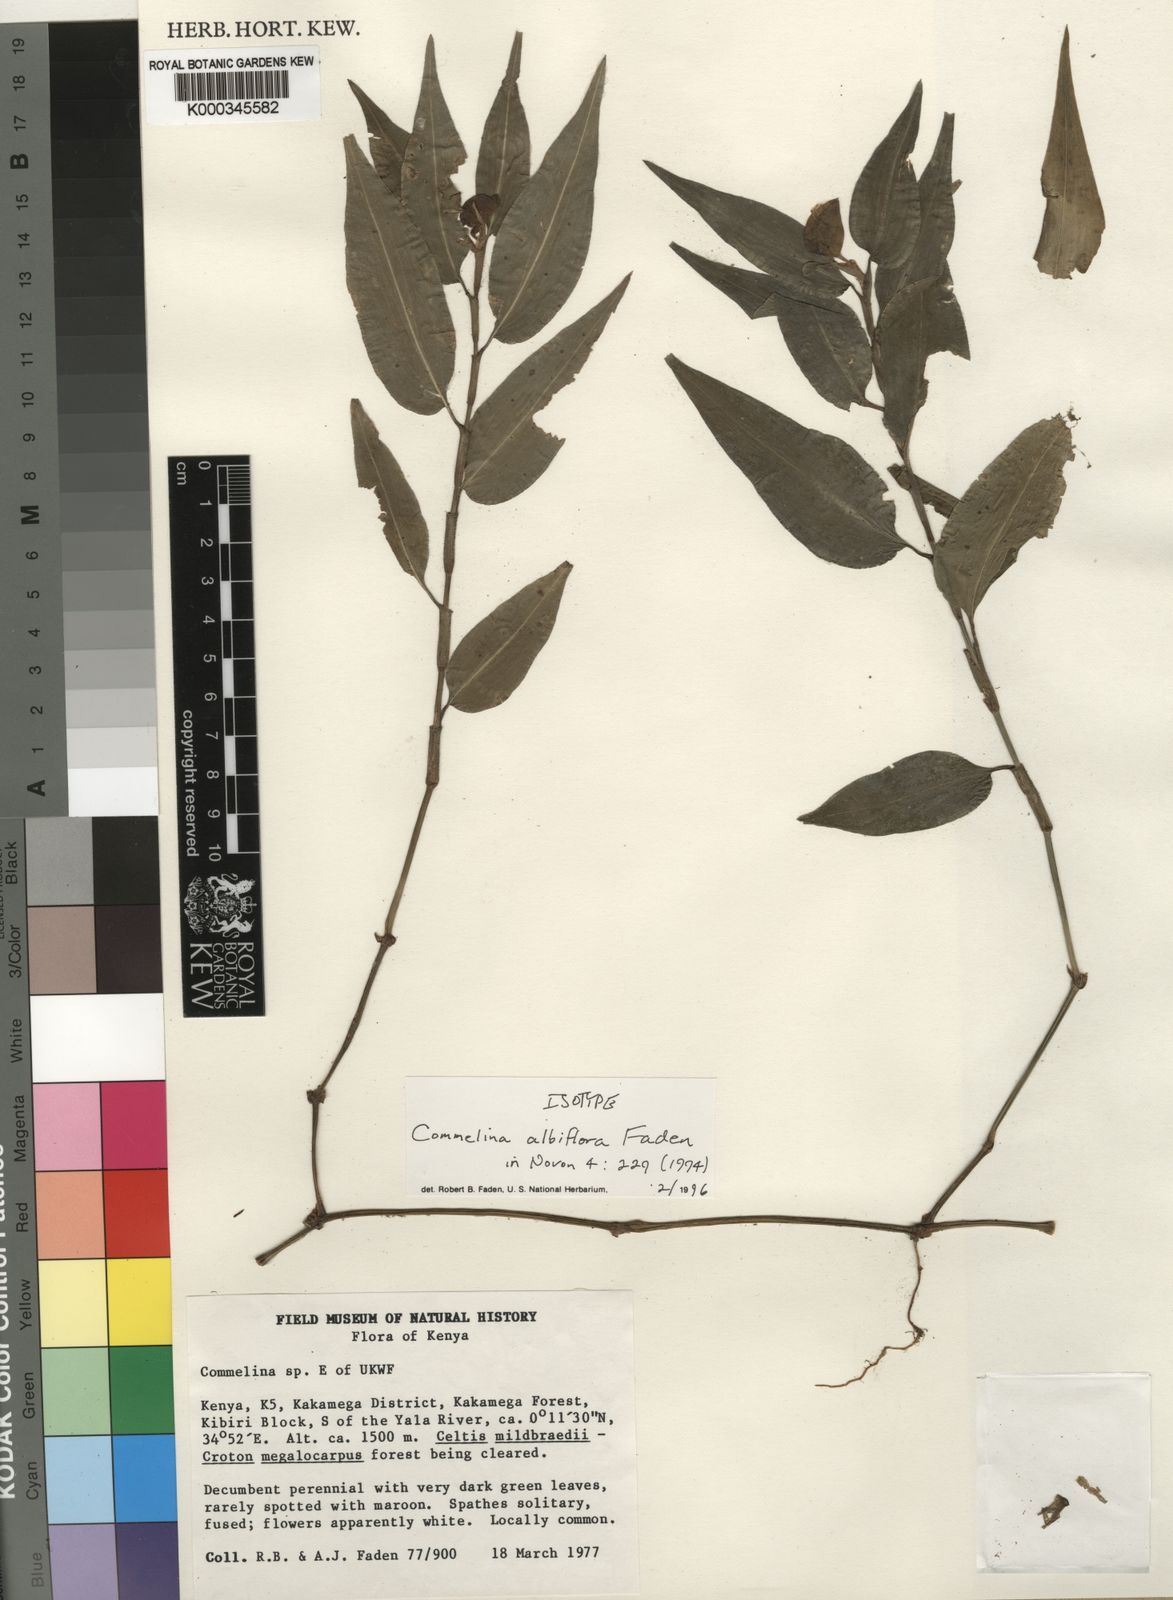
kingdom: Plantae
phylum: Tracheophyta
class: Liliopsida
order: Commelinales
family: Commelinaceae
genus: Commelina
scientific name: Commelina albiflora
